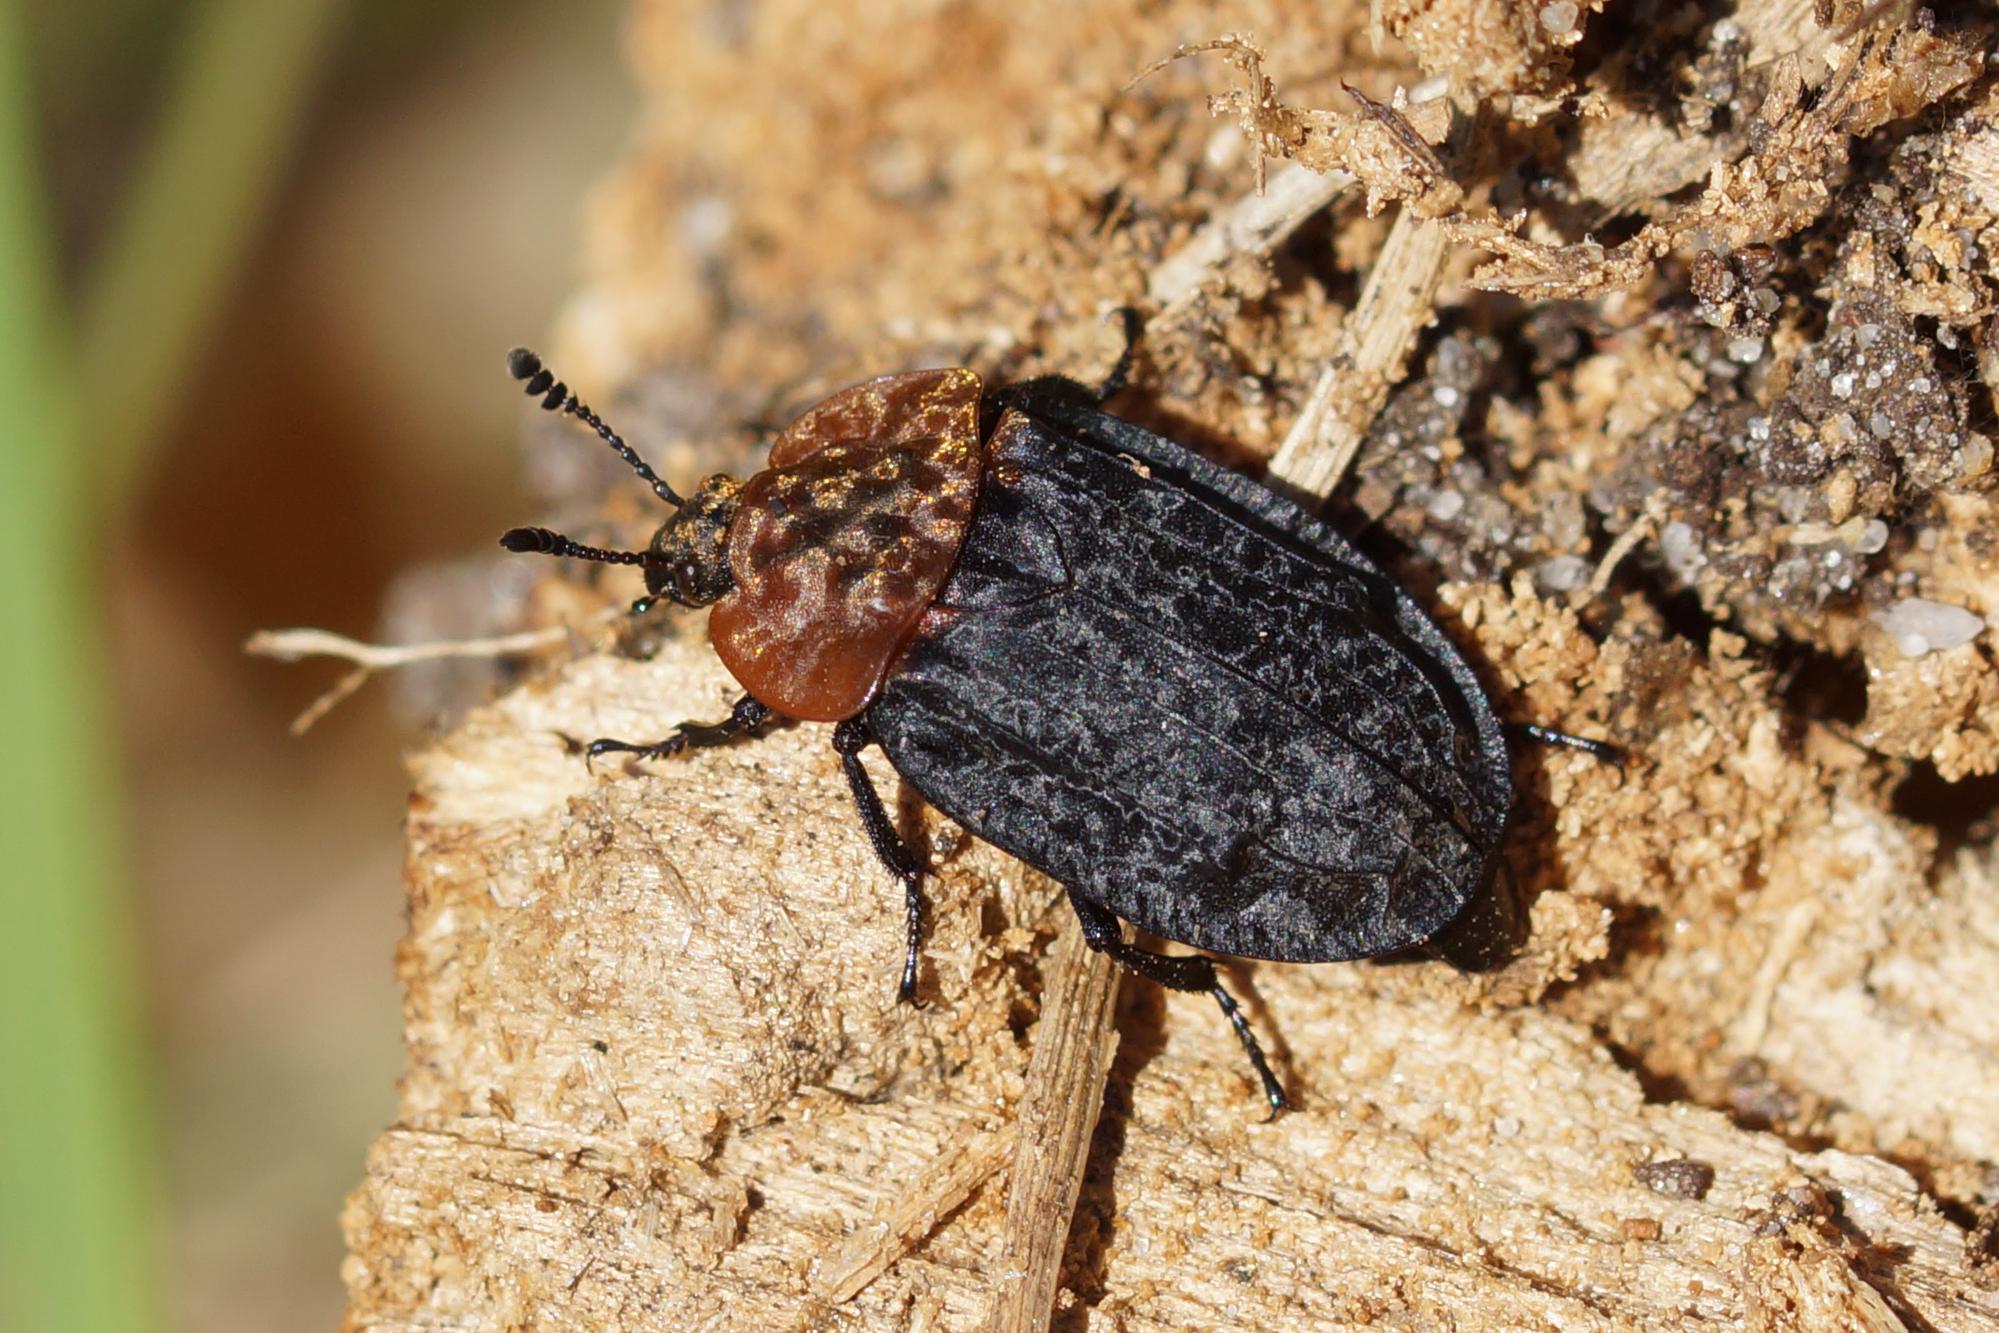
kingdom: Animalia
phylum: Arthropoda
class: Insecta
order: Coleoptera
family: Staphylinidae
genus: Oiceoptoma
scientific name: Oiceoptoma thoracicum
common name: Rødbrystet ådselbille
